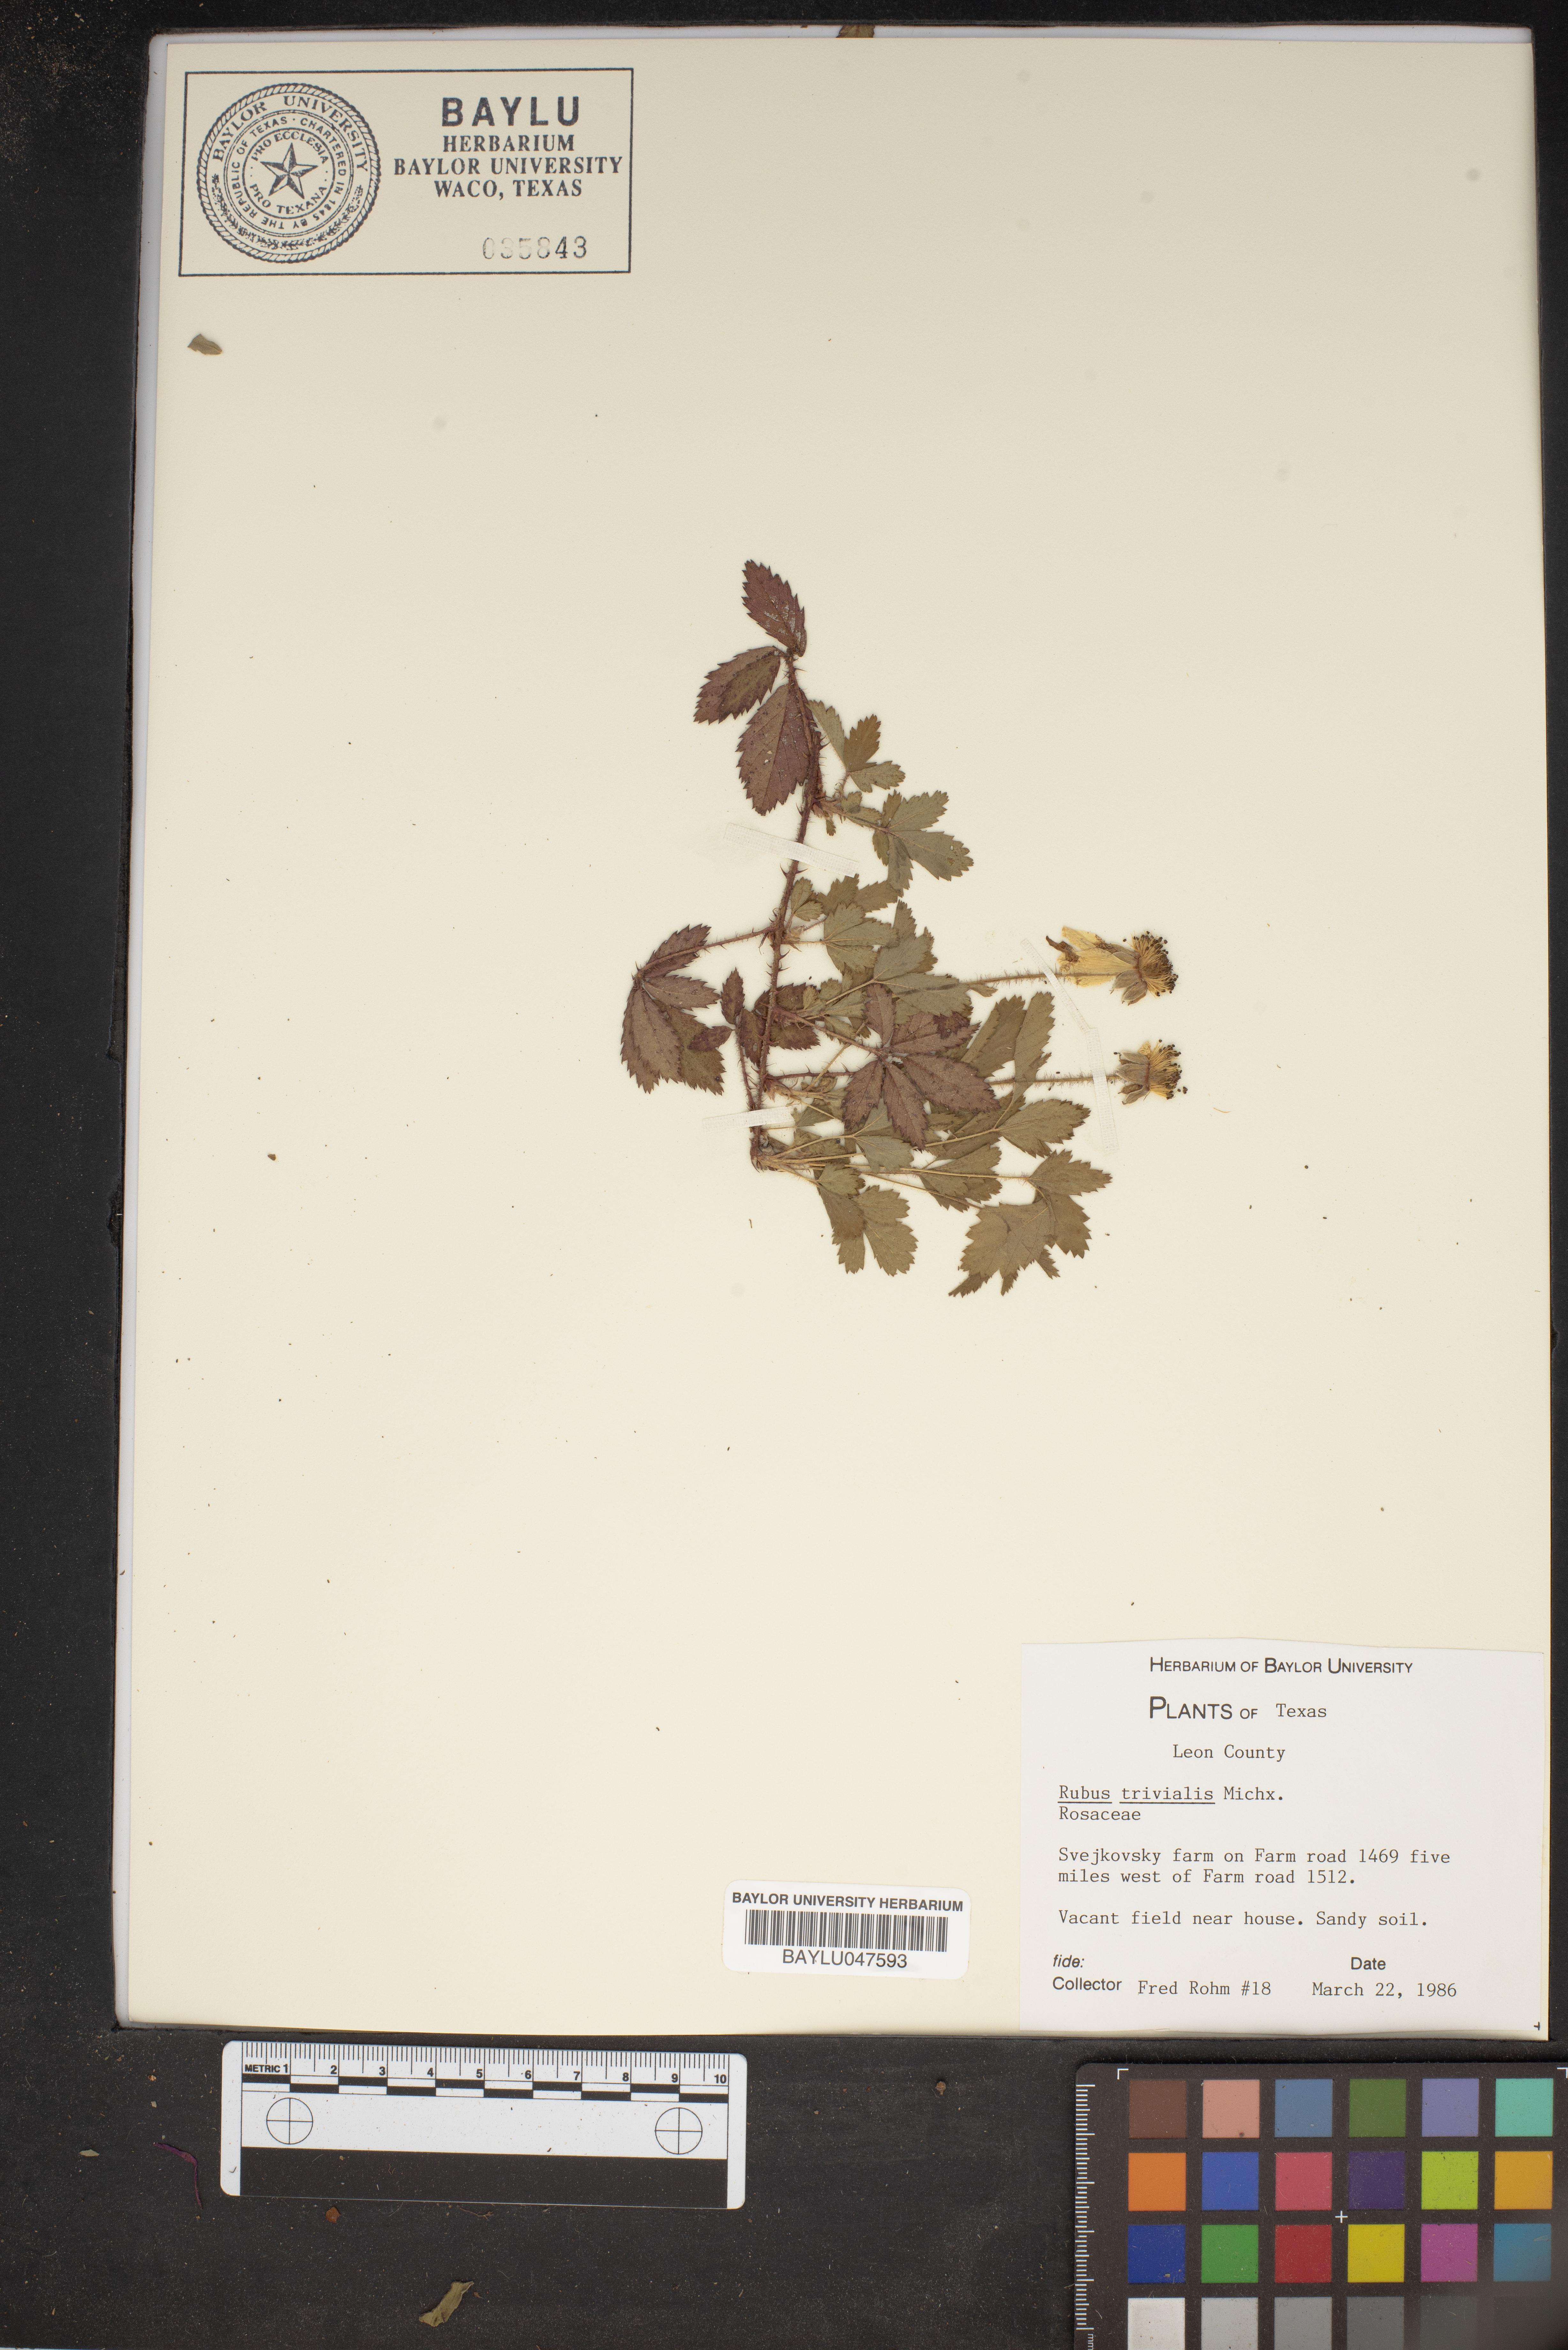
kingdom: Plantae
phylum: Tracheophyta
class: Magnoliopsida
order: Rosales
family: Rosaceae
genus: Rubus
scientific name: Rubus trivialis
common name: Southern dewberry
